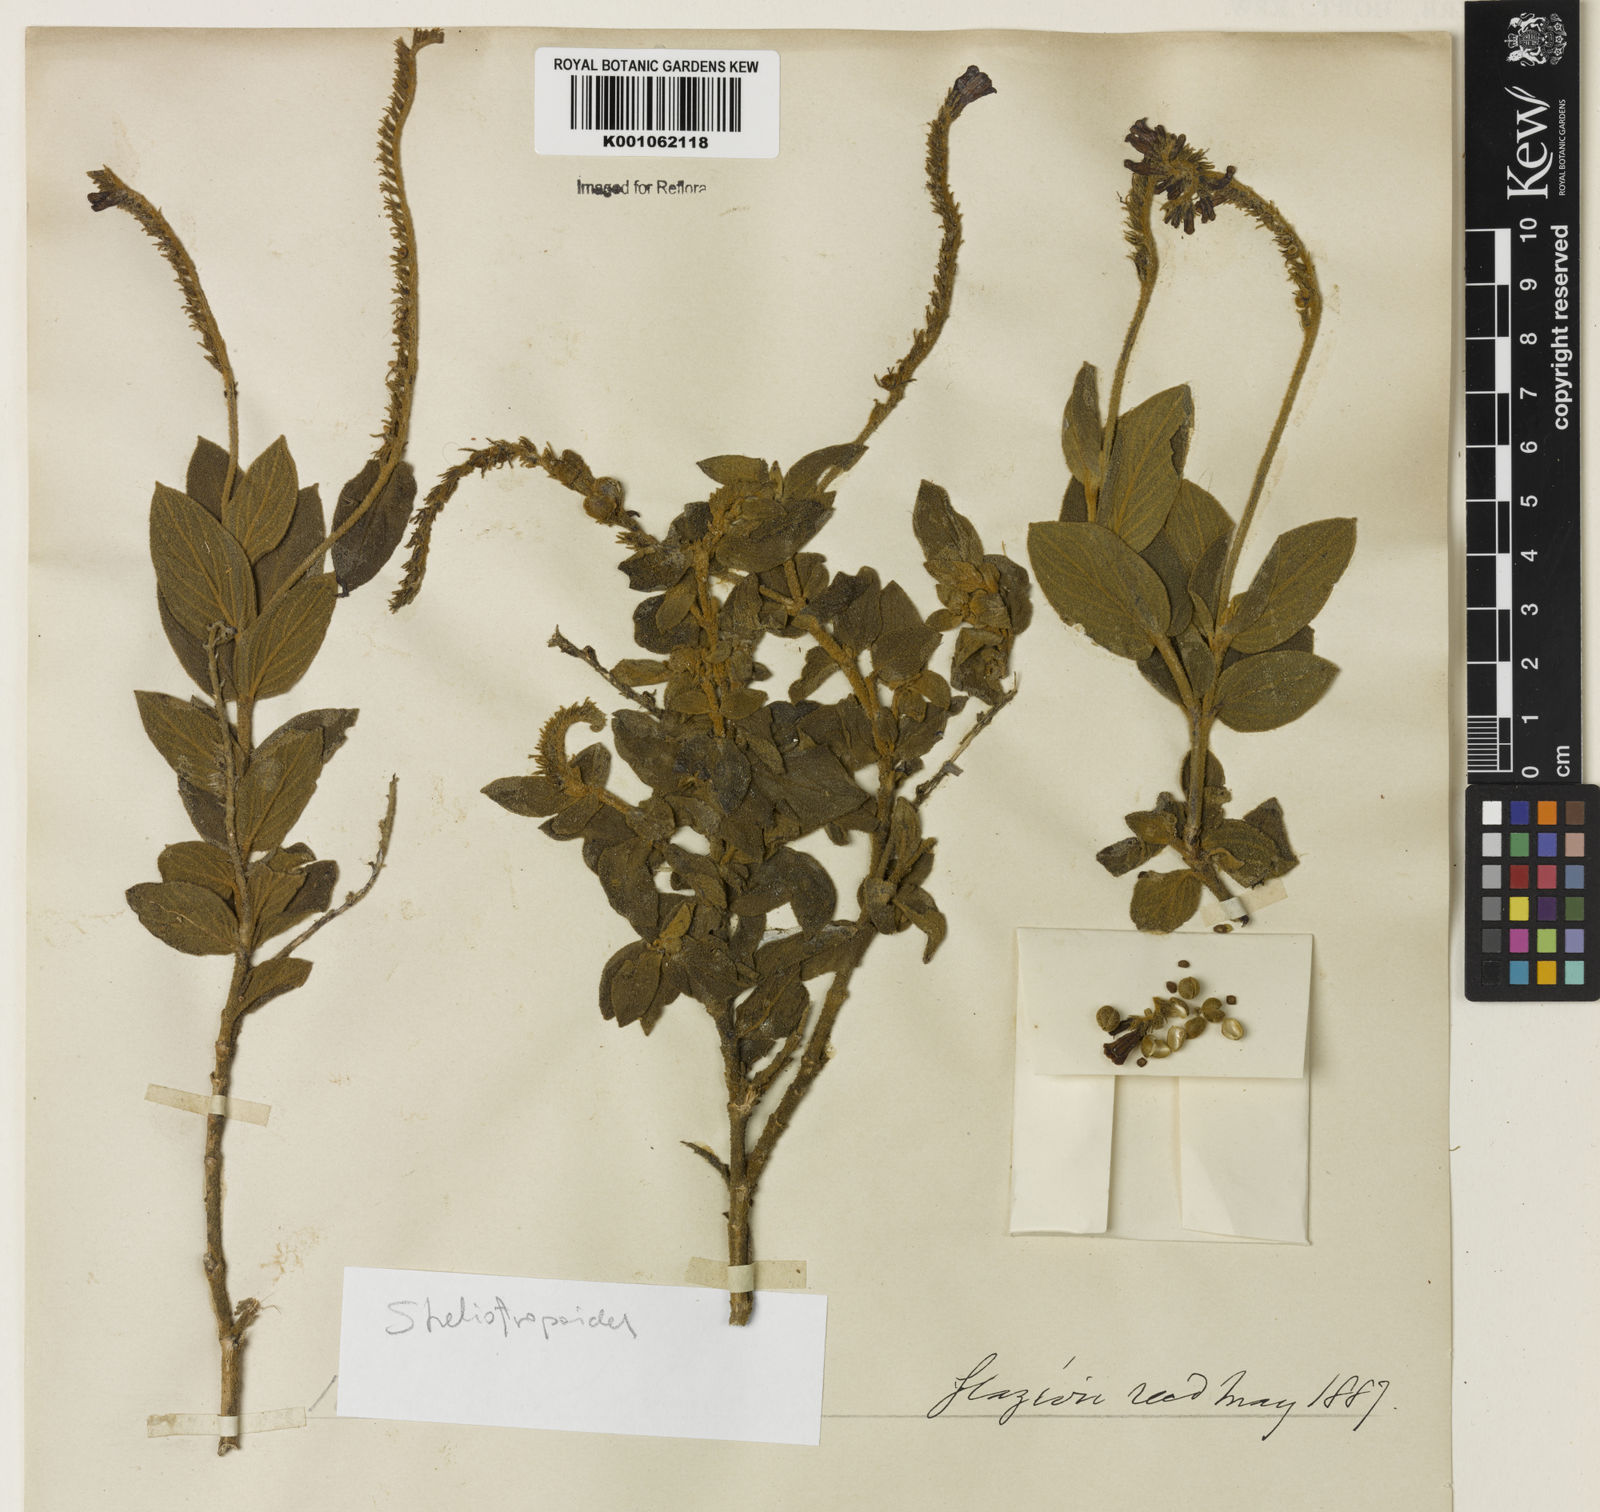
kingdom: Plantae
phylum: Tracheophyta
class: Magnoliopsida
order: Gentianales
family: Loganiaceae
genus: Spigelia
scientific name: Spigelia olfersiana
